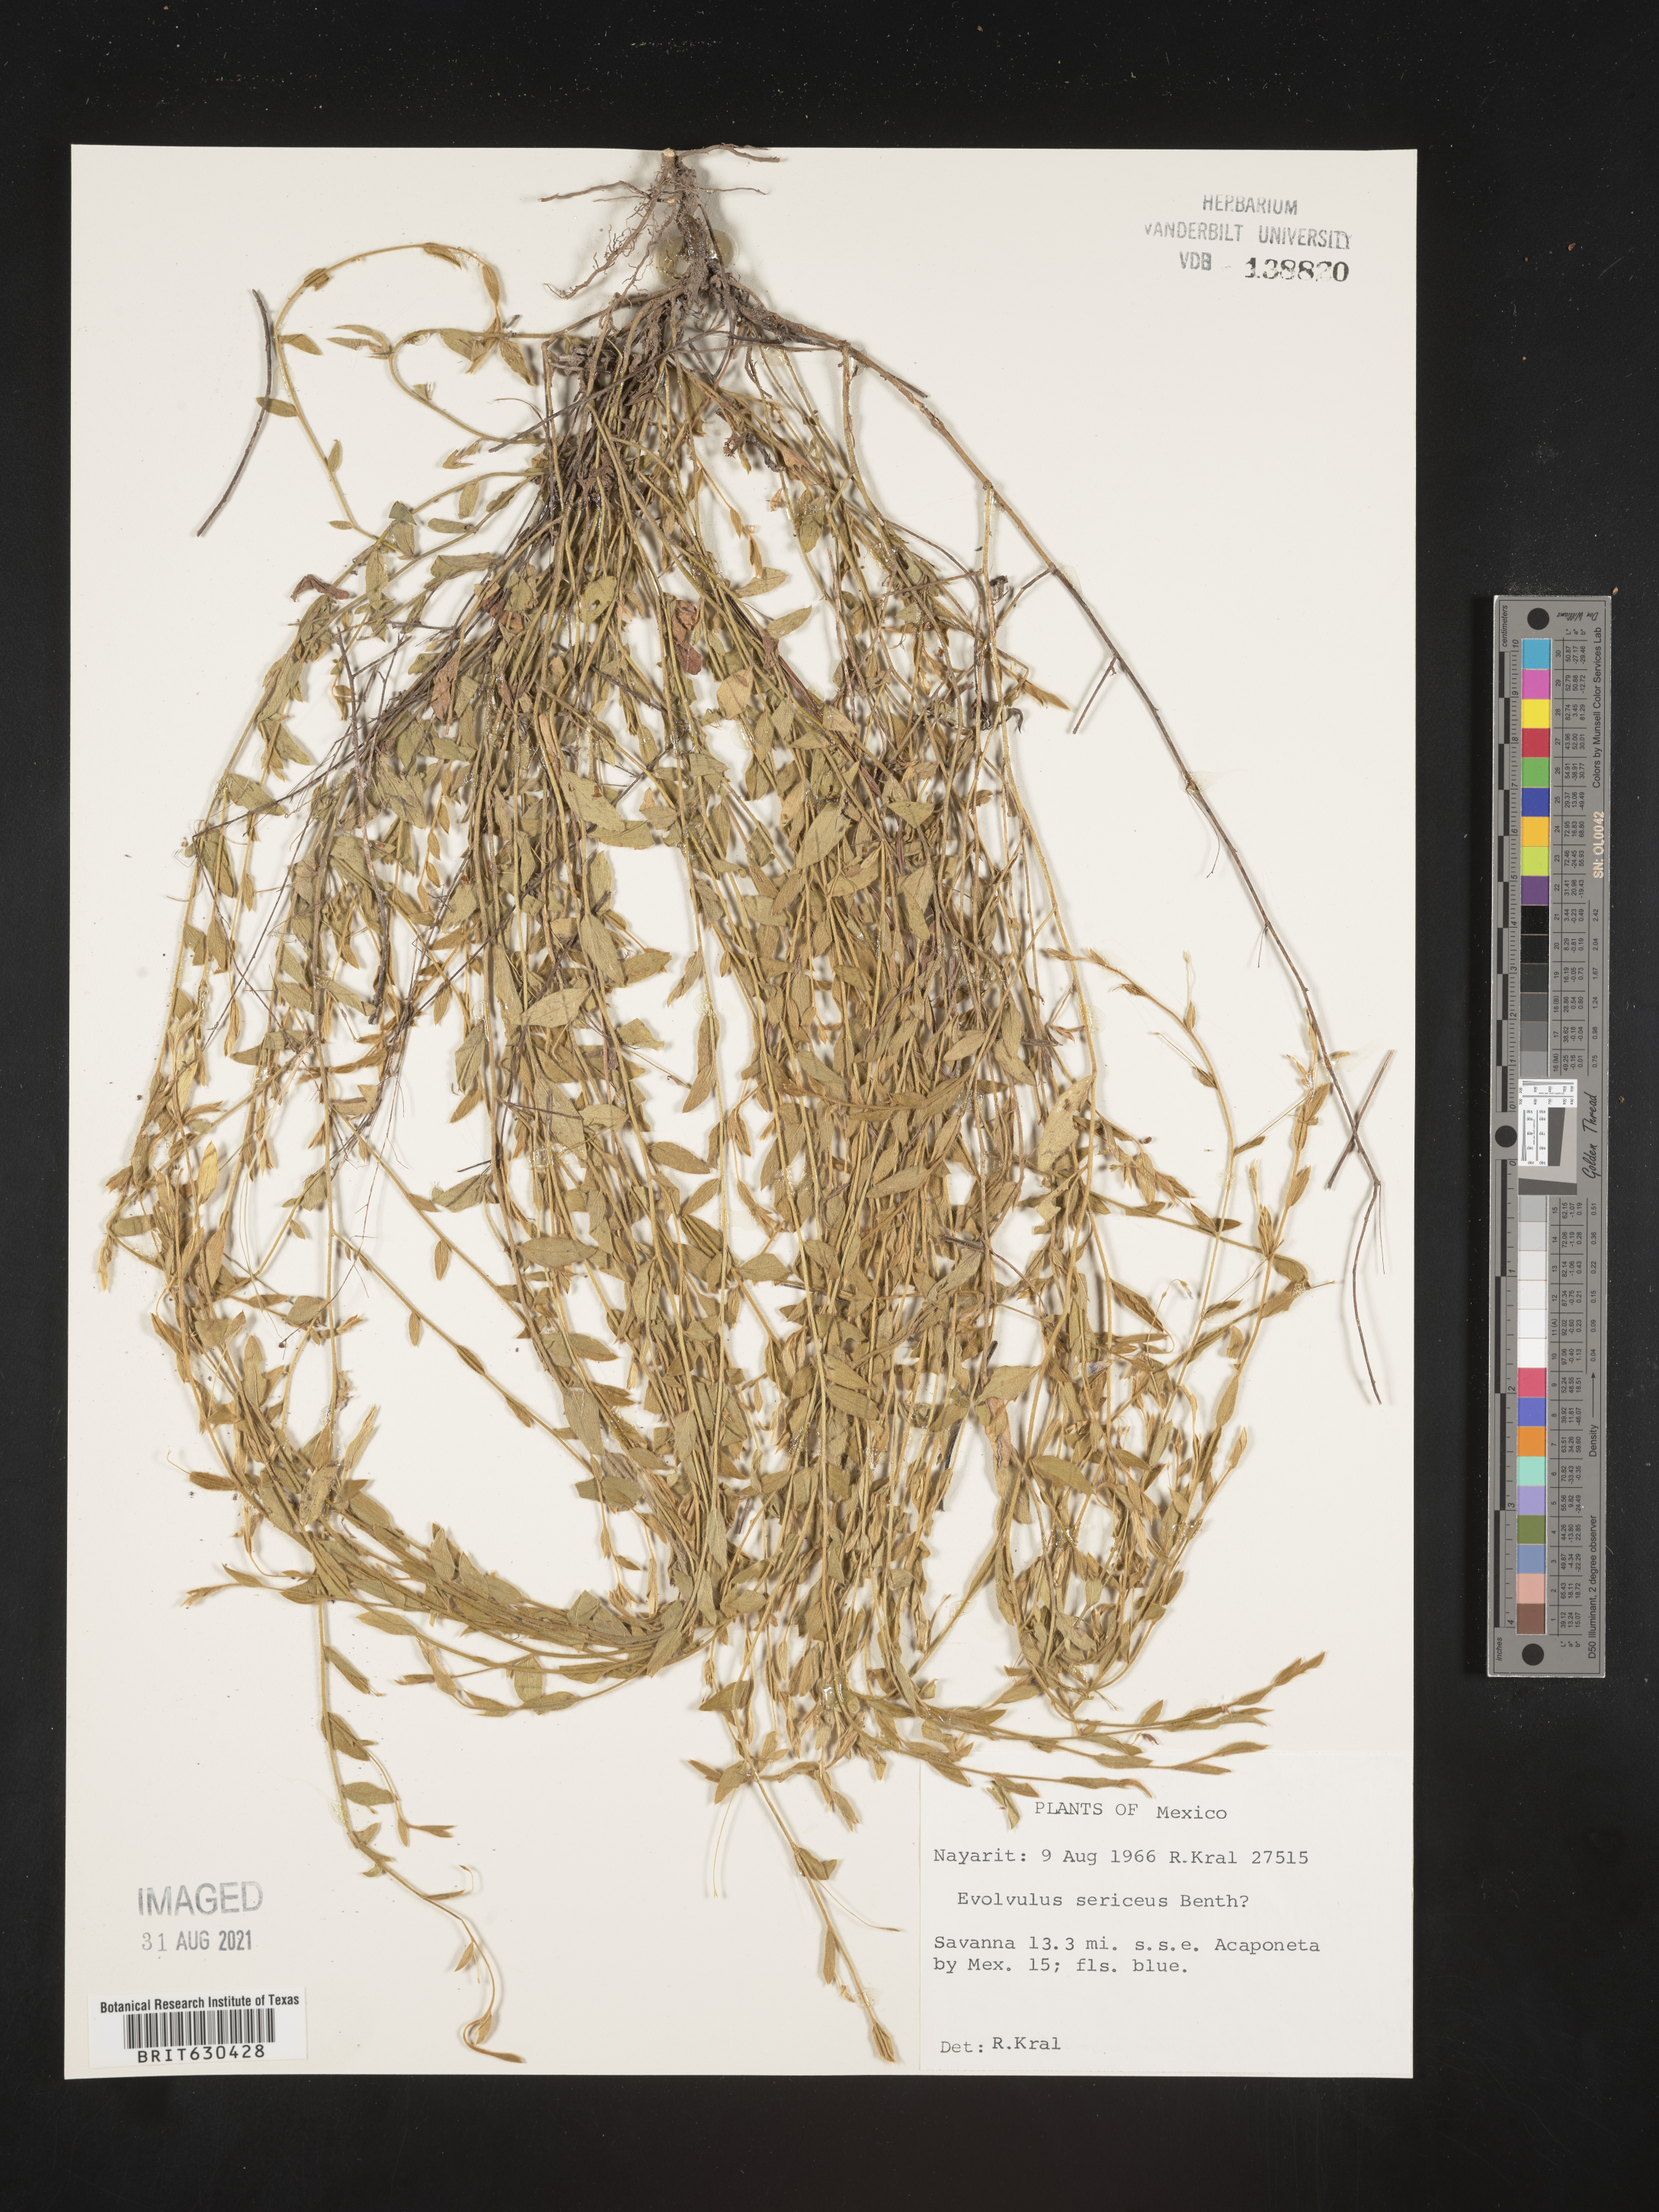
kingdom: Plantae
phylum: Tracheophyta
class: Magnoliopsida
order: Solanales
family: Convolvulaceae
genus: Evolvulus
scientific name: Evolvulus
